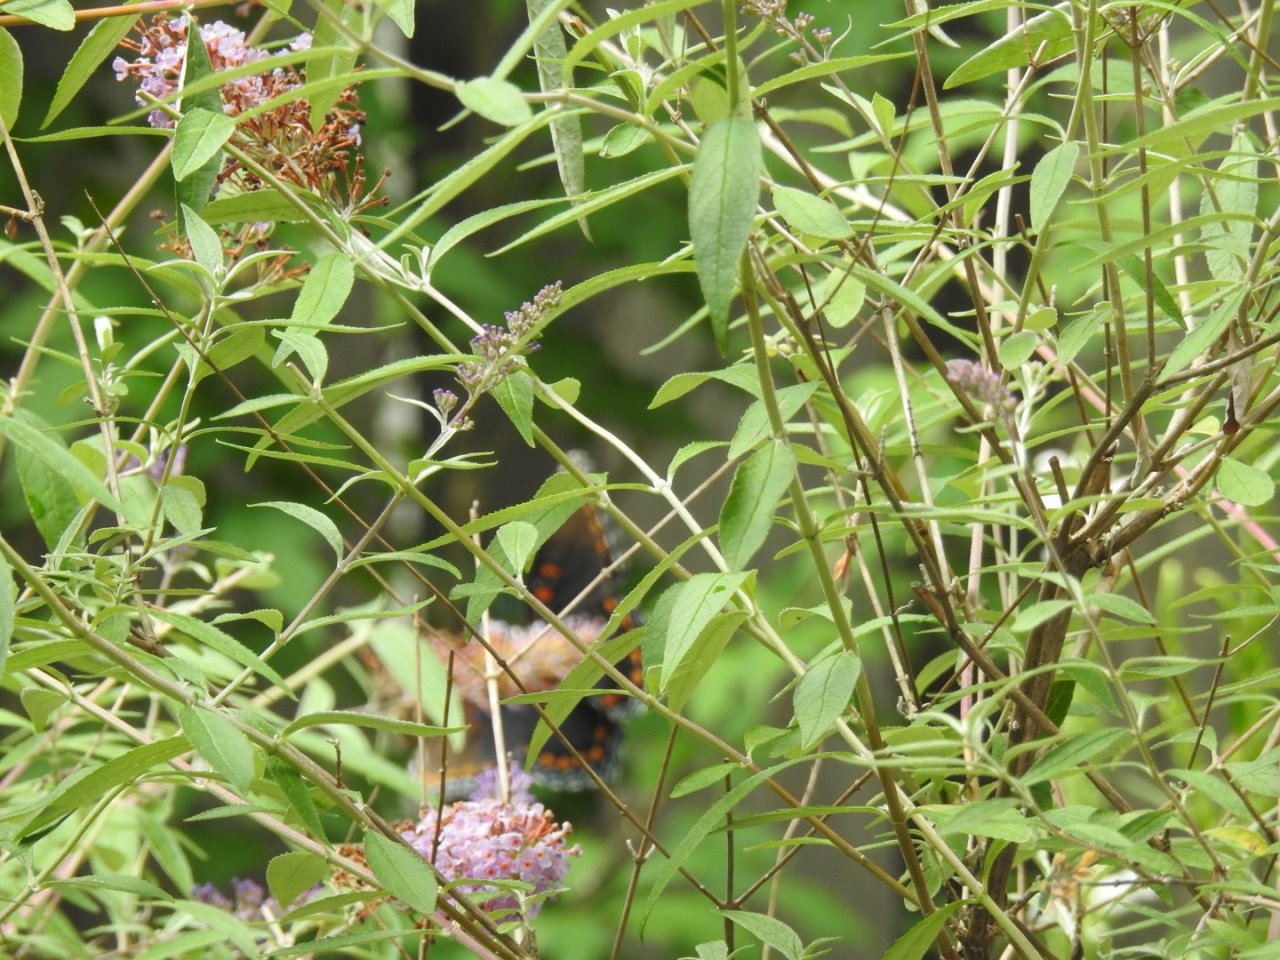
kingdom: Animalia
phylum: Arthropoda
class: Insecta
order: Lepidoptera
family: Nymphalidae
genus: Limenitis
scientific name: Limenitis arthemis
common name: Red-spotted Admiral
